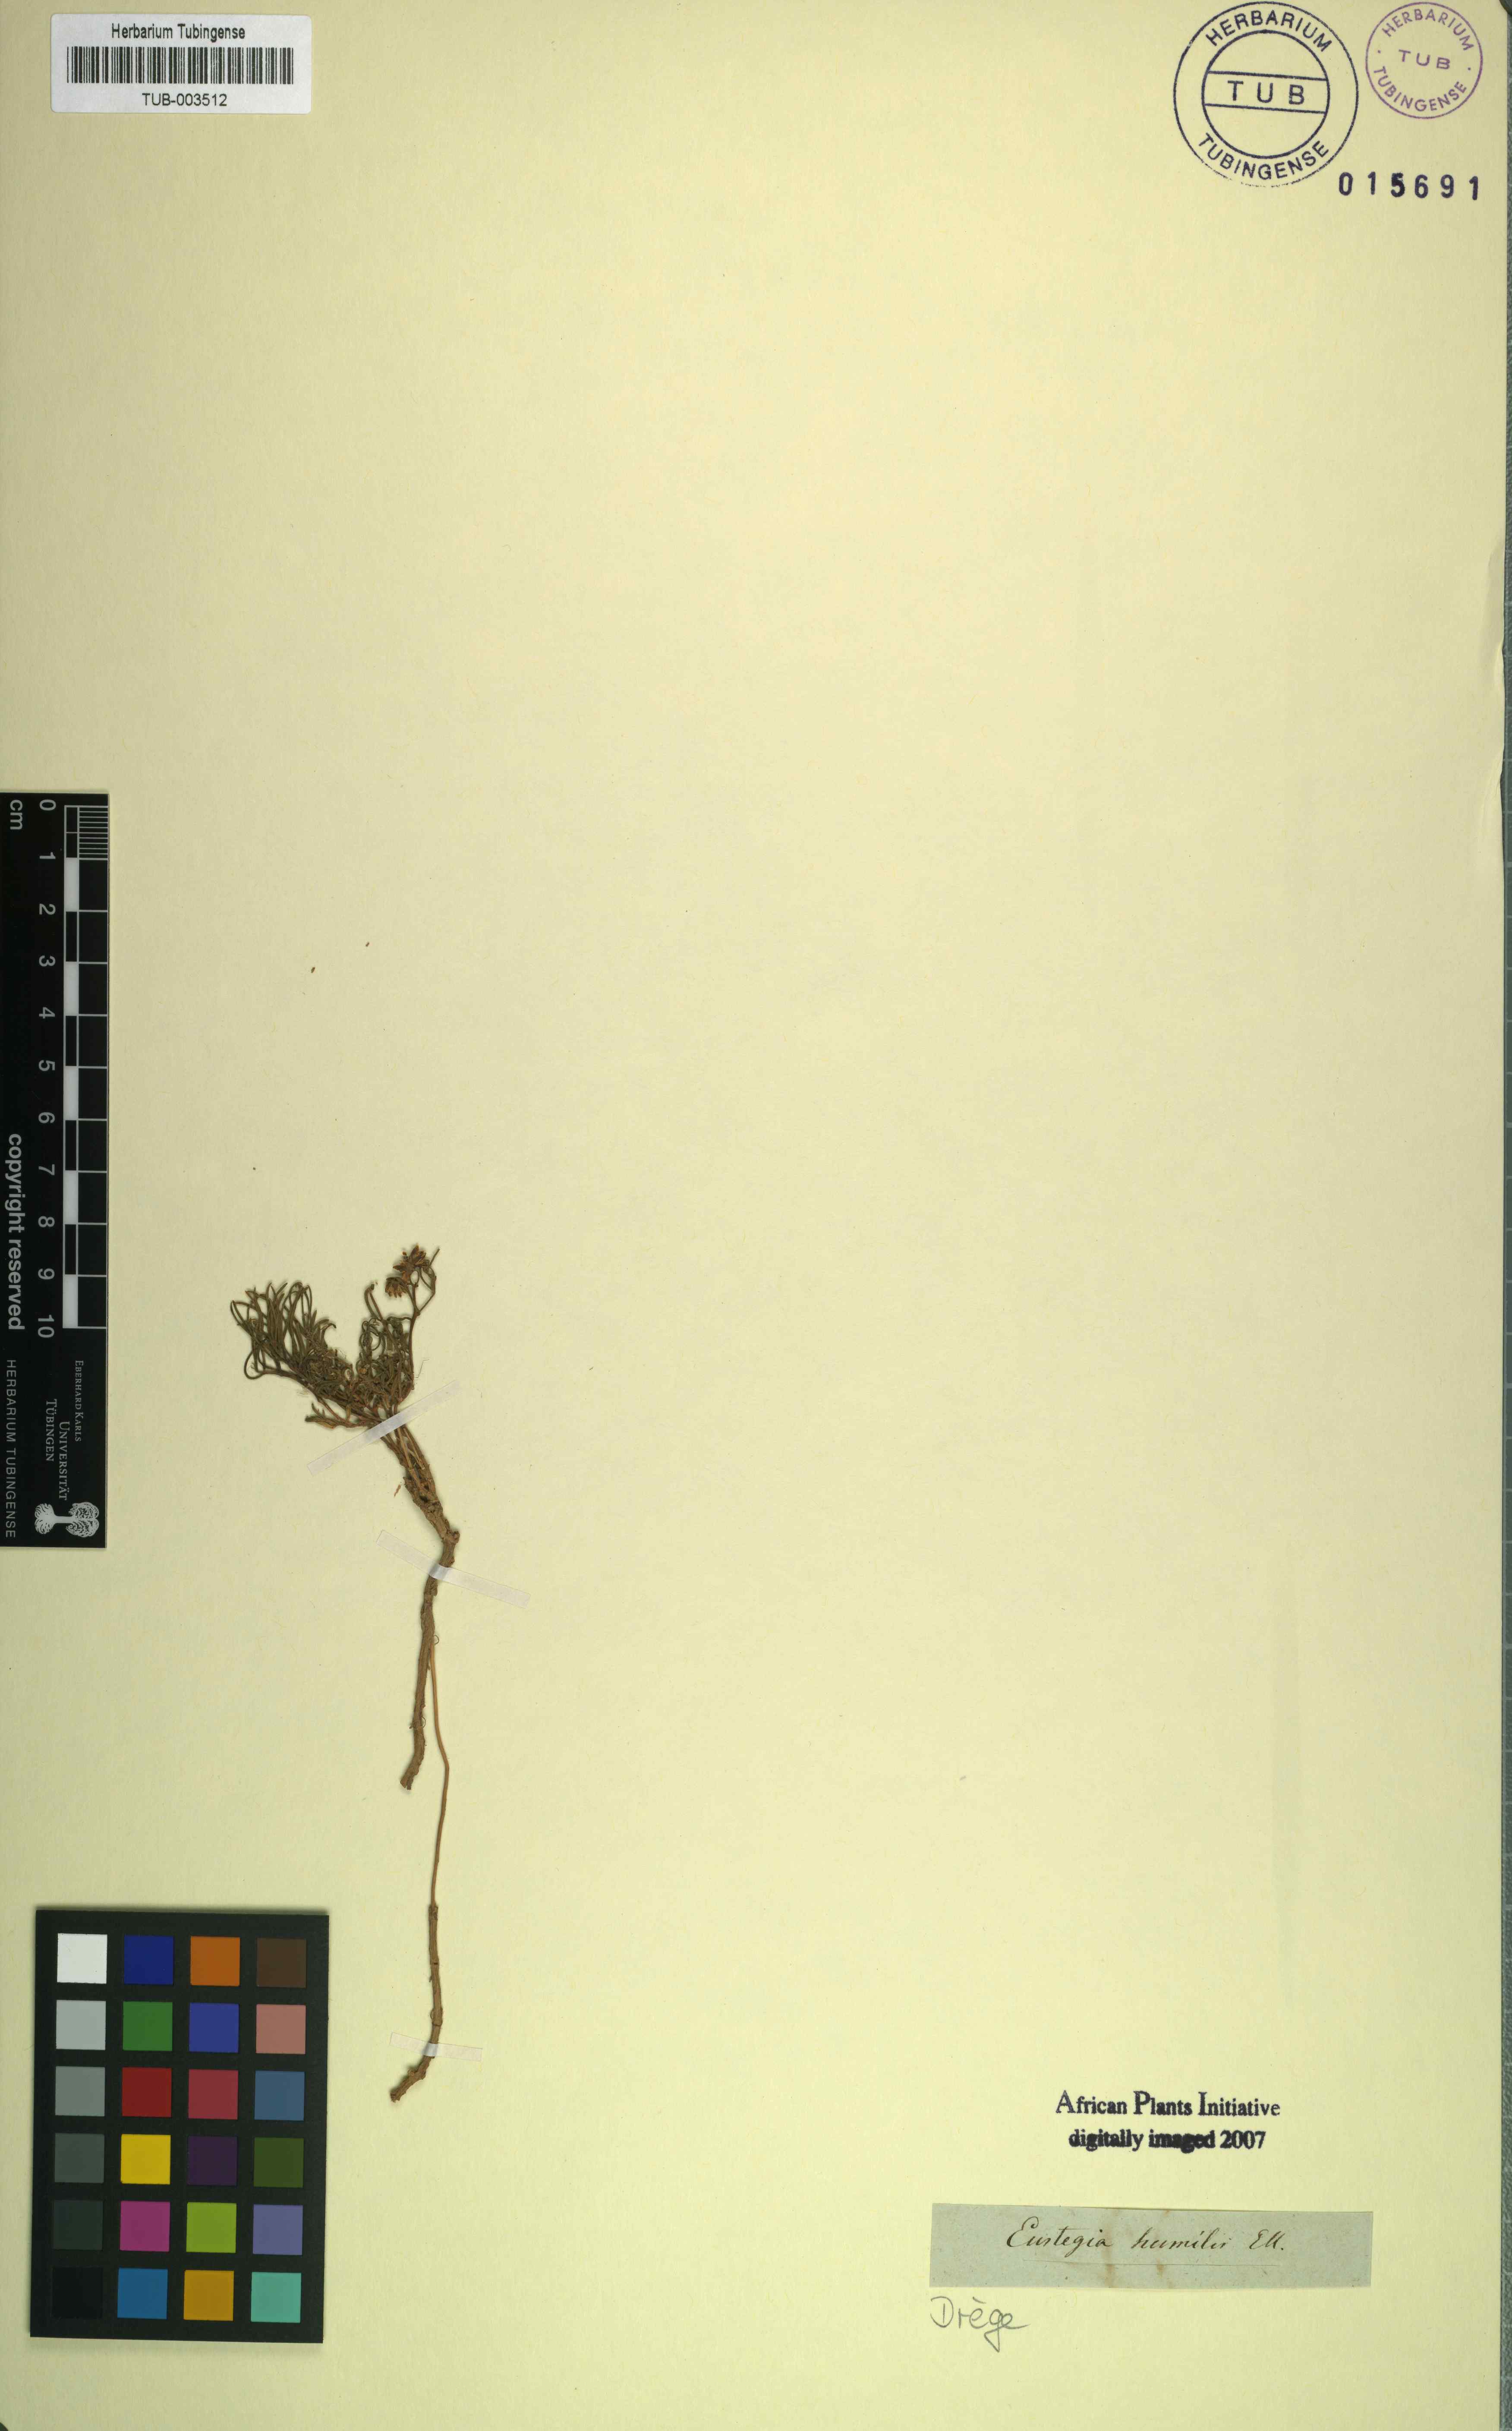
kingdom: Plantae
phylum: Tracheophyta
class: Magnoliopsida
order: Gentianales
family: Apocynaceae
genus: Eustegia
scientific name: Eustegia filiformis
